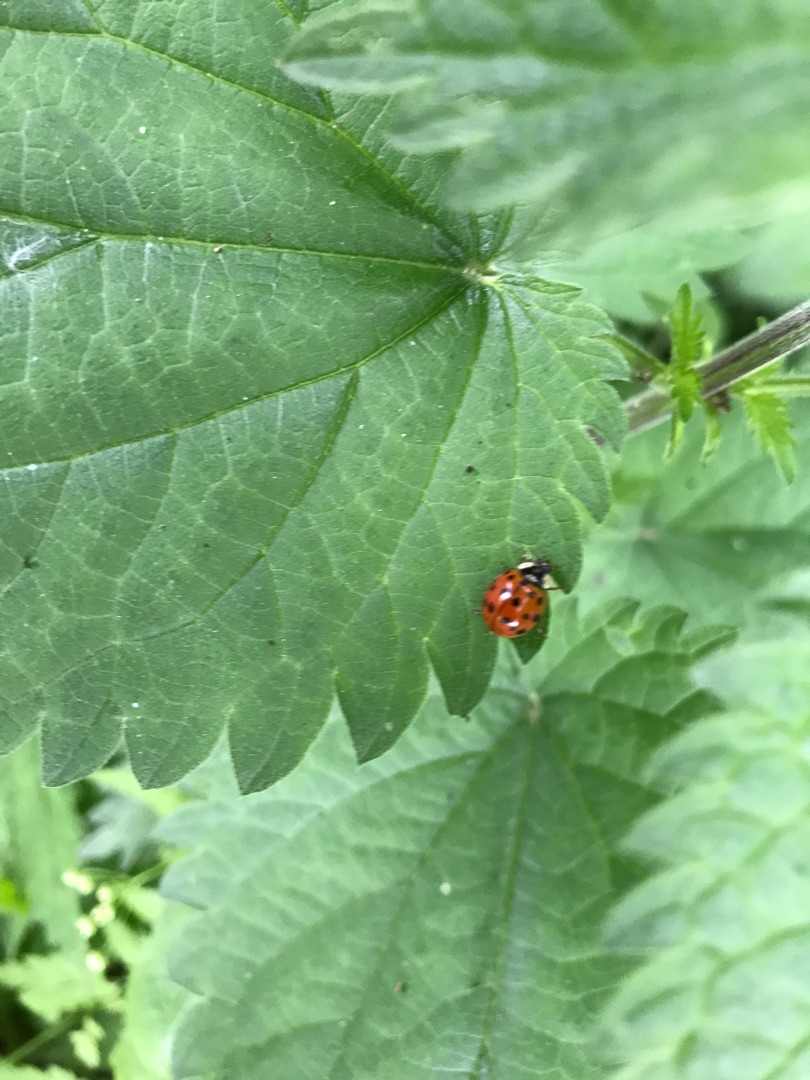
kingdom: Animalia
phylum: Arthropoda
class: Insecta
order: Coleoptera
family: Coccinellidae
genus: Harmonia
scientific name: Harmonia axyridis
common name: Harlekinmariehøne
